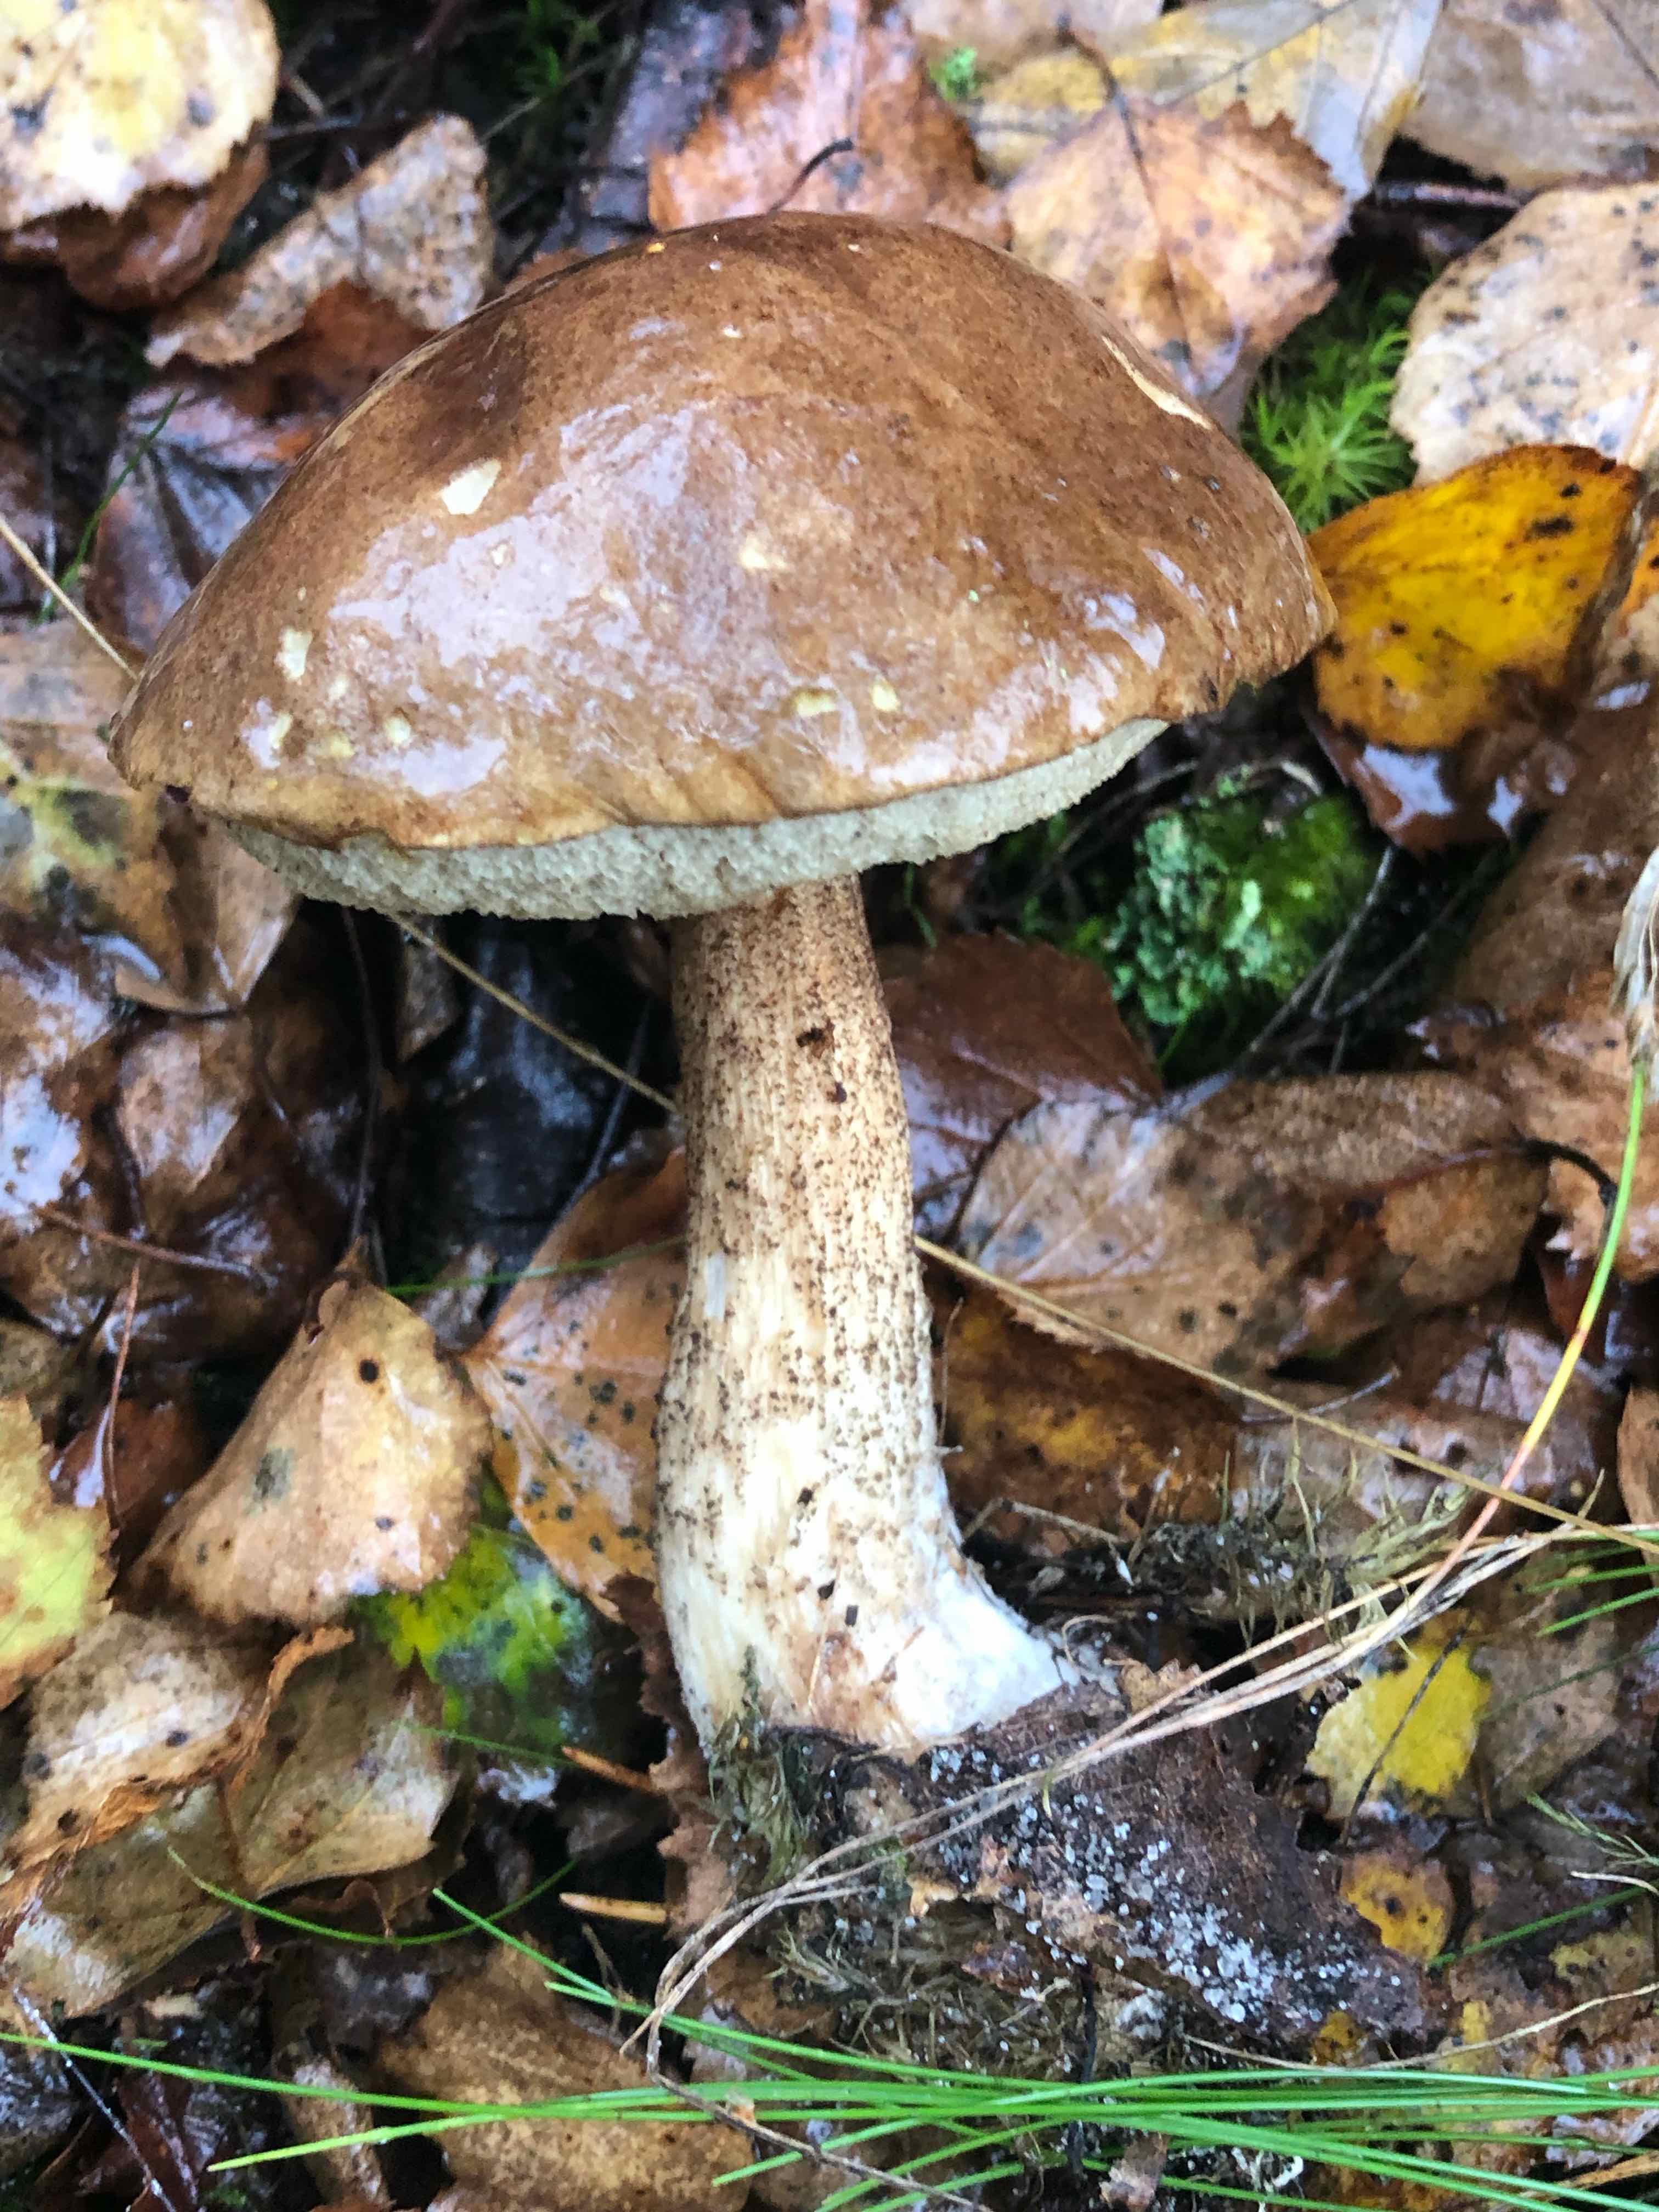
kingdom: Fungi
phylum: Basidiomycota
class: Agaricomycetes
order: Boletales
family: Boletaceae
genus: Leccinum
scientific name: Leccinum scabrum
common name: brun skælrørhat
